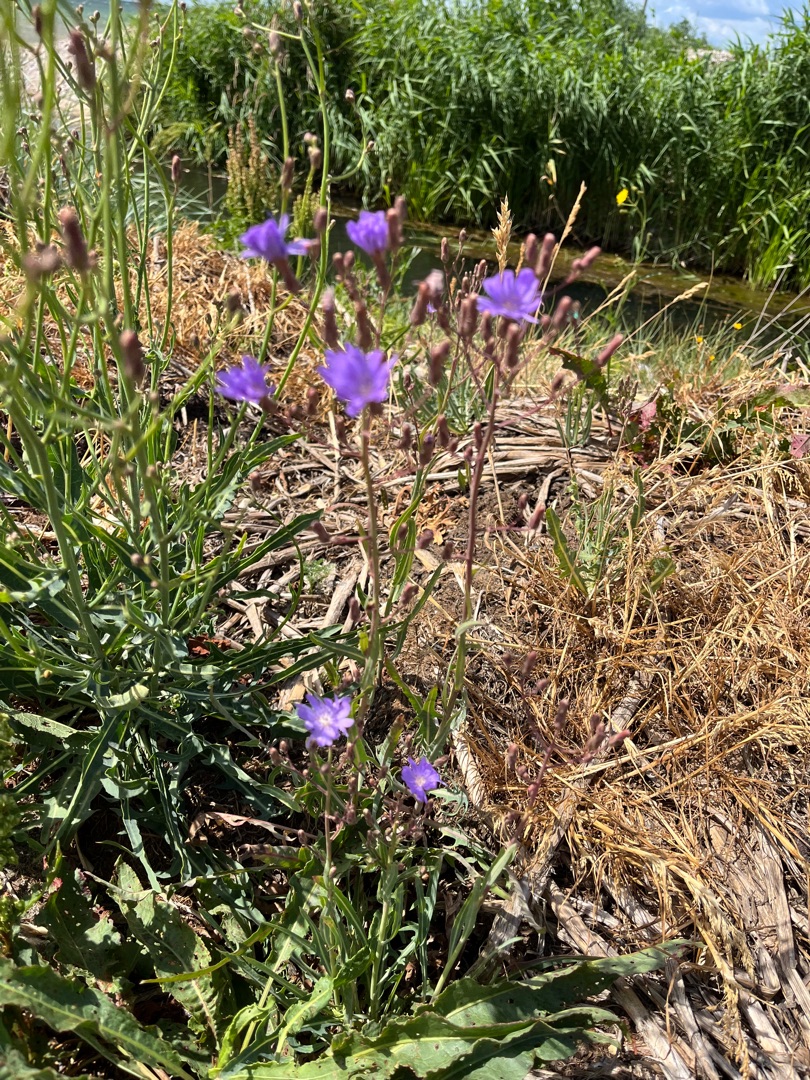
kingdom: Plantae
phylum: Tracheophyta
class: Magnoliopsida
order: Asterales
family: Asteraceae
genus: Lactuca
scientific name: Lactuca tatarica
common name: Strand-salat
